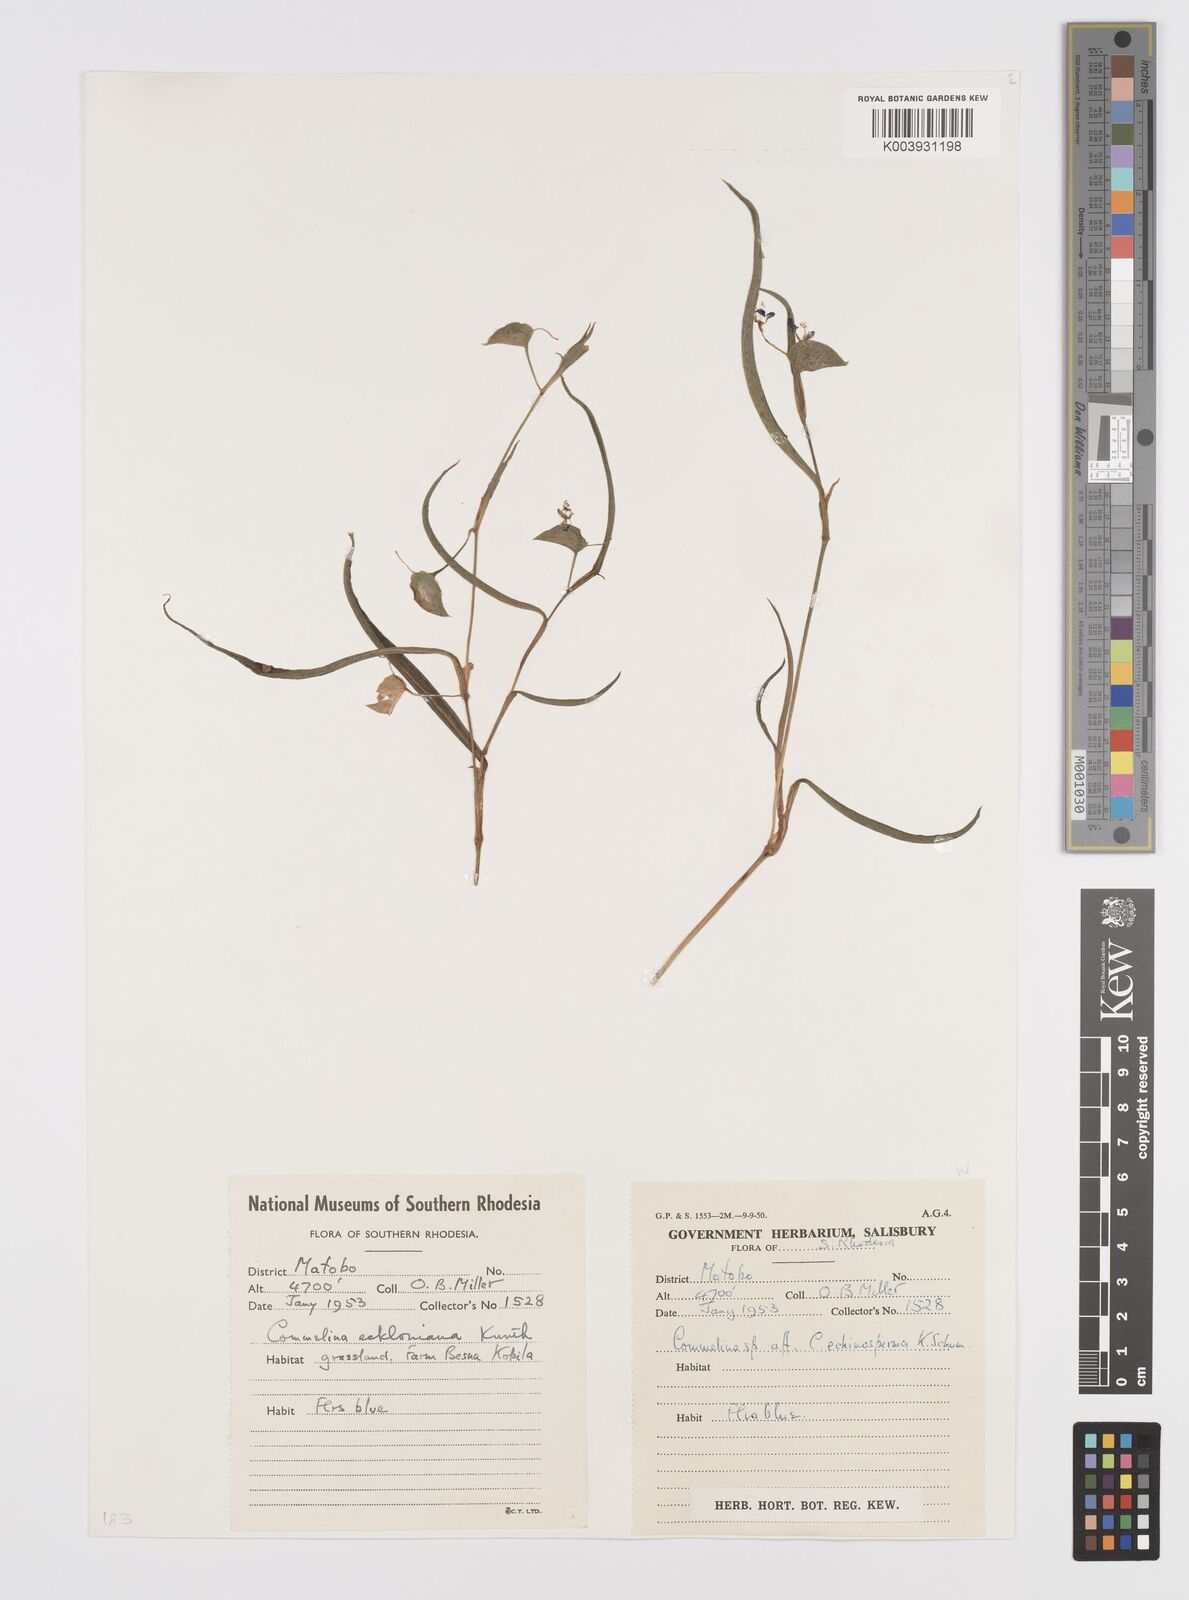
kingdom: Plantae
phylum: Tracheophyta
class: Liliopsida
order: Commelinales
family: Commelinaceae
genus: Commelina
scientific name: Commelina eckloniana
